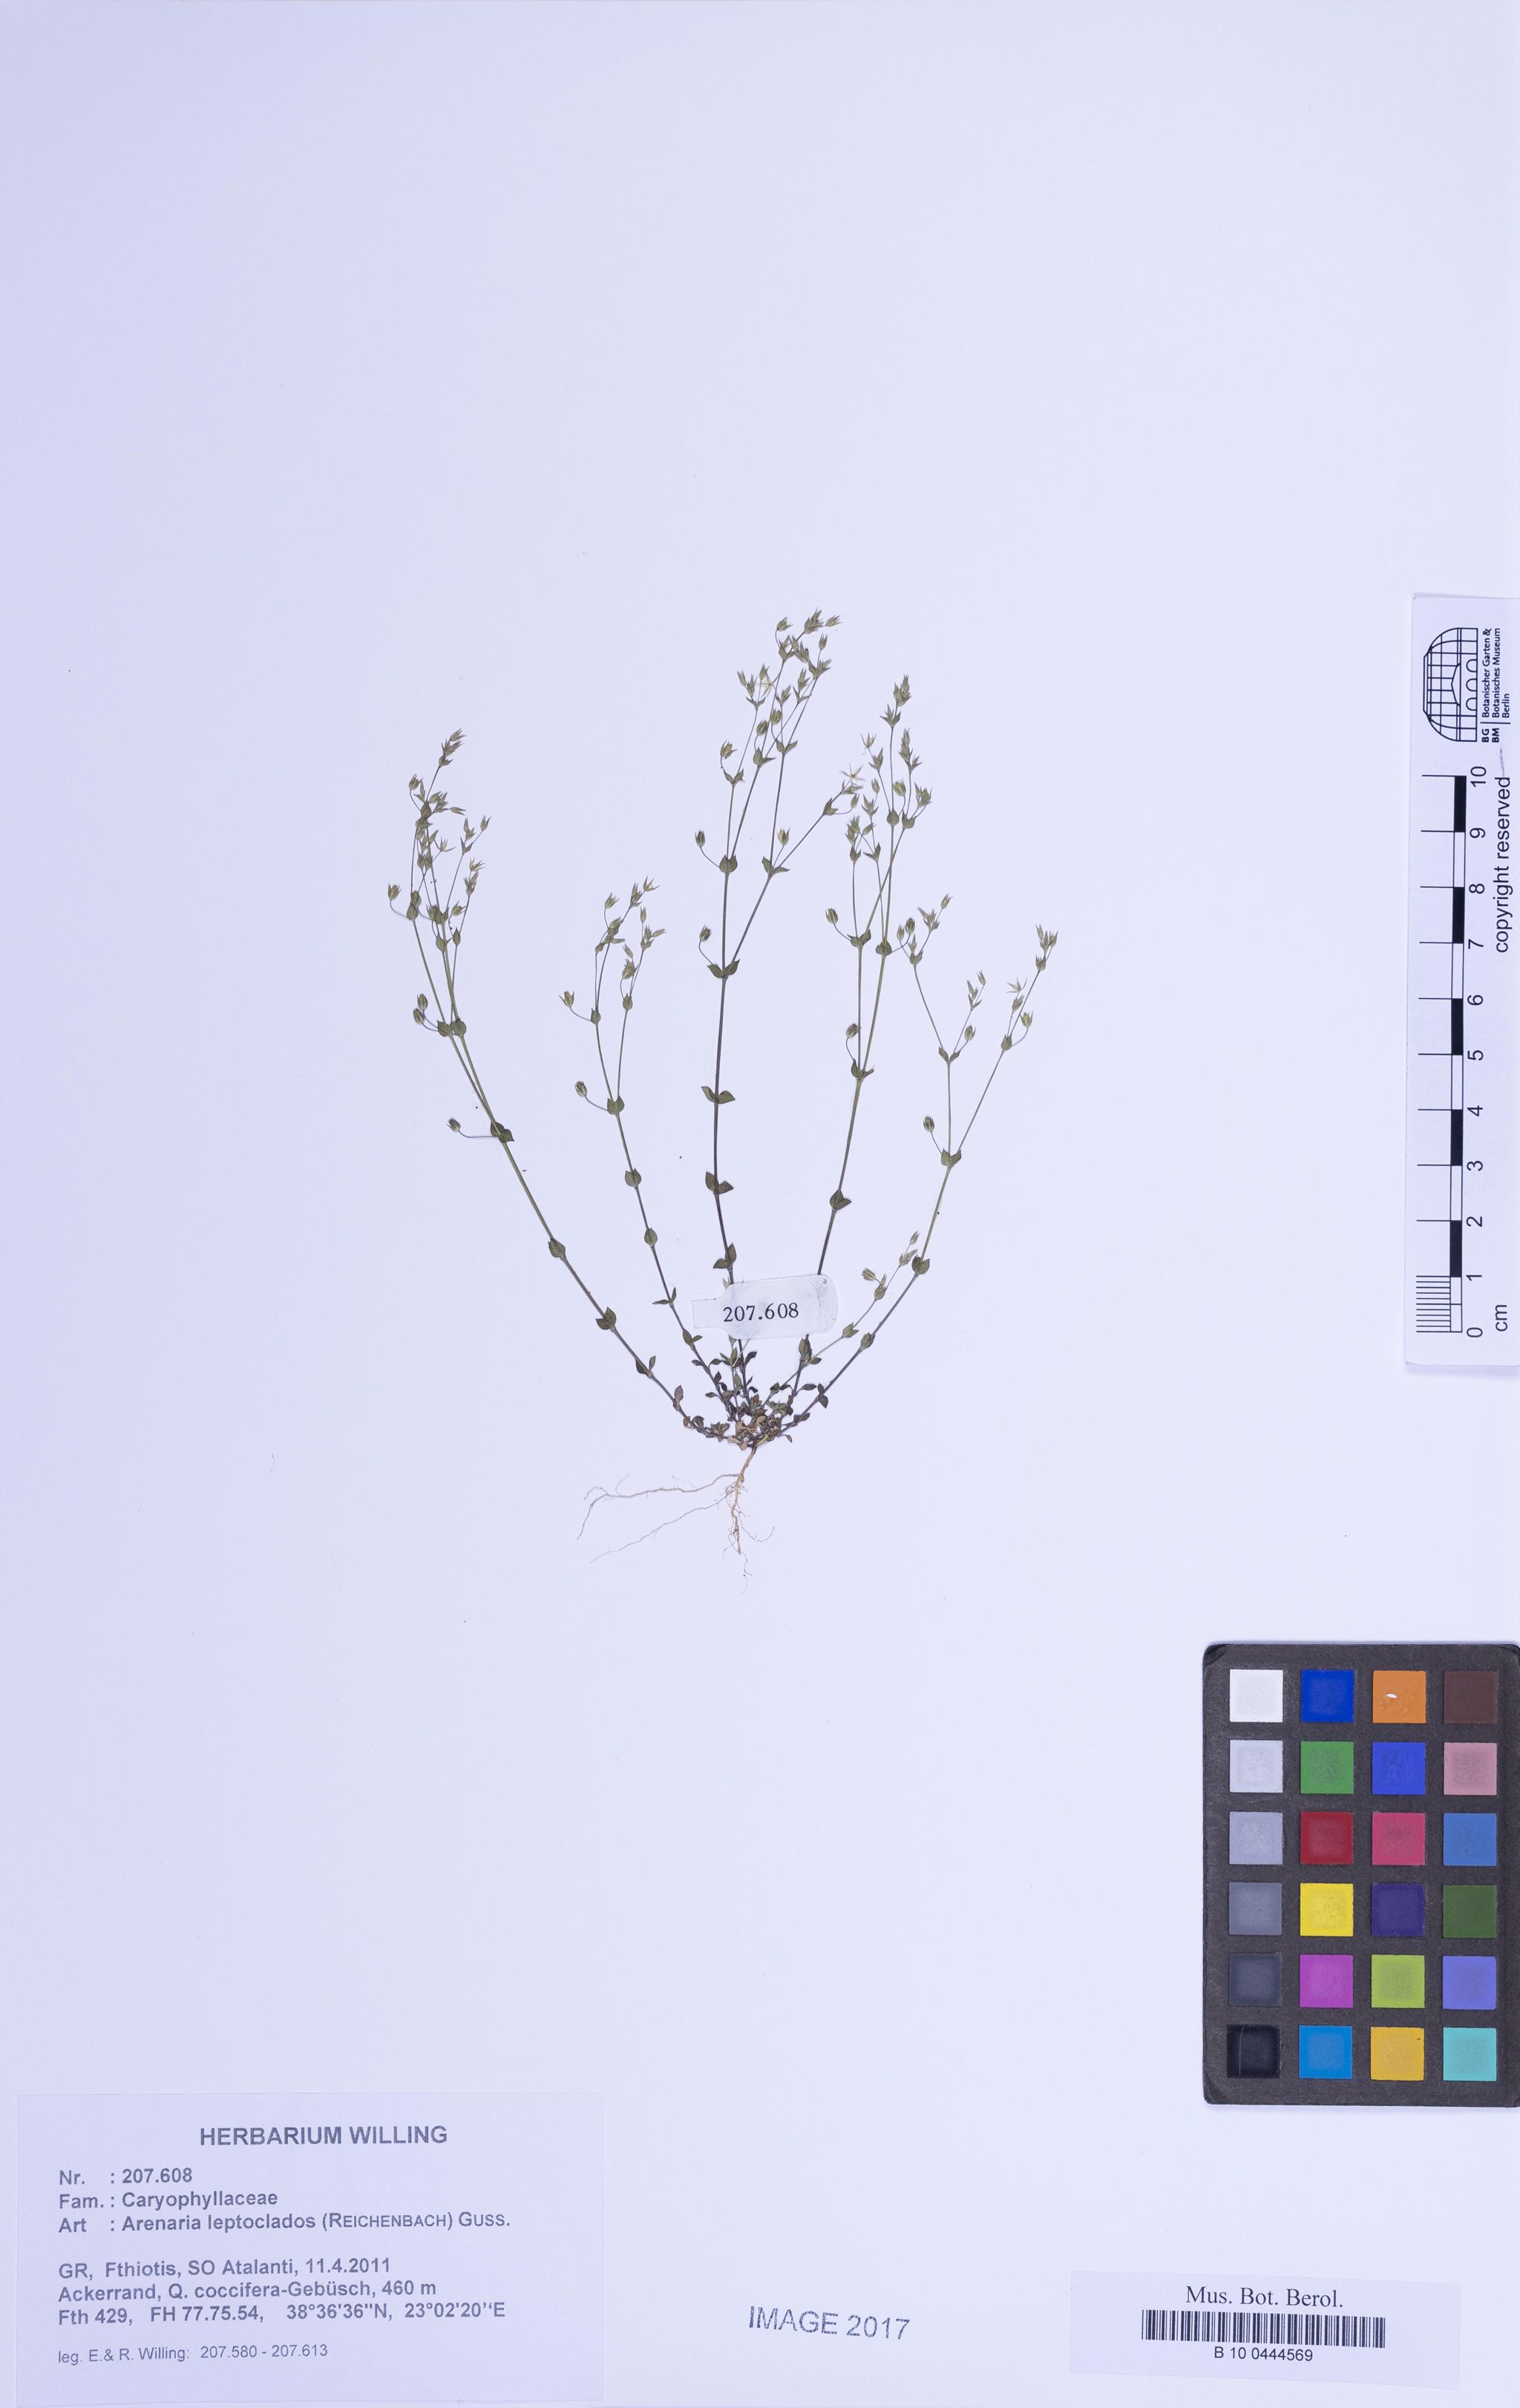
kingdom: Plantae
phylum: Tracheophyta
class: Magnoliopsida
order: Caryophyllales
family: Caryophyllaceae
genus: Arenaria
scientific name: Arenaria leptoclados
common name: Thyme-leaved sandwort
